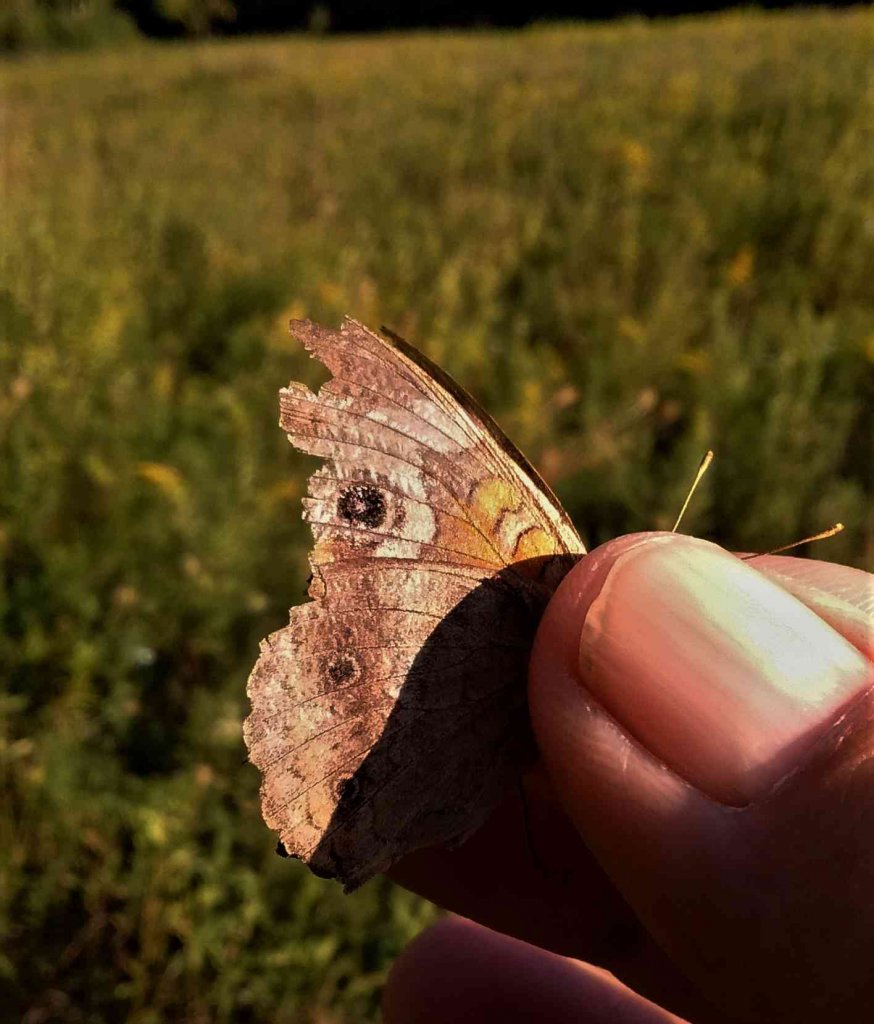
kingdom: Animalia
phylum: Arthropoda
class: Insecta
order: Lepidoptera
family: Nymphalidae
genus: Junonia
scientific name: Junonia coenia
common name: Common Buckeye
